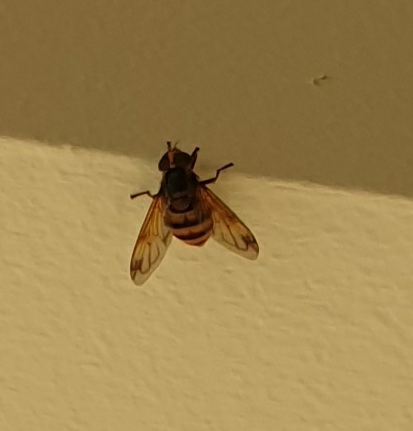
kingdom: Animalia
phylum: Arthropoda
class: Insecta
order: Diptera
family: Syrphidae
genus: Volucella
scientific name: Volucella inanis
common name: Gul humlesvirreflue
